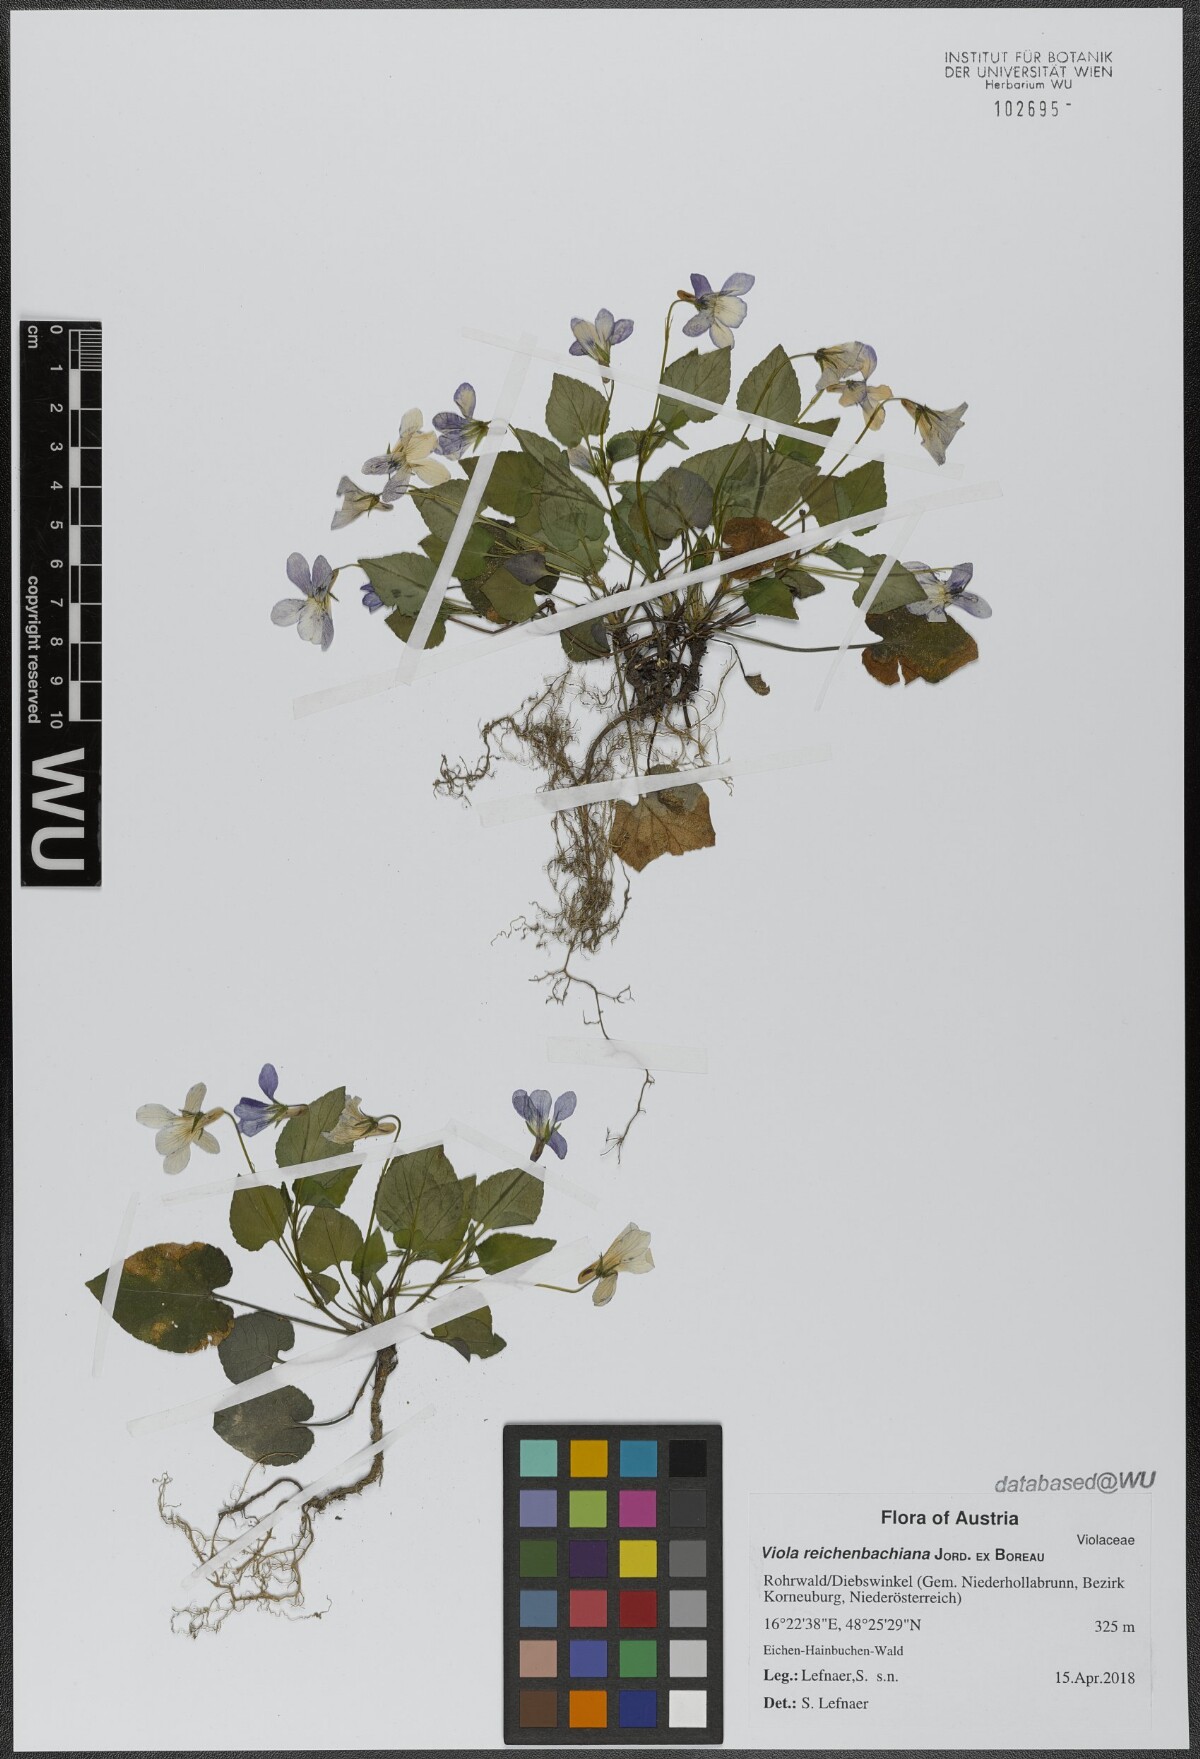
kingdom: Plantae
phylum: Tracheophyta
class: Magnoliopsida
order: Malpighiales
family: Violaceae
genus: Viola
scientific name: Viola reichenbachiana
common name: Early dog-violet
